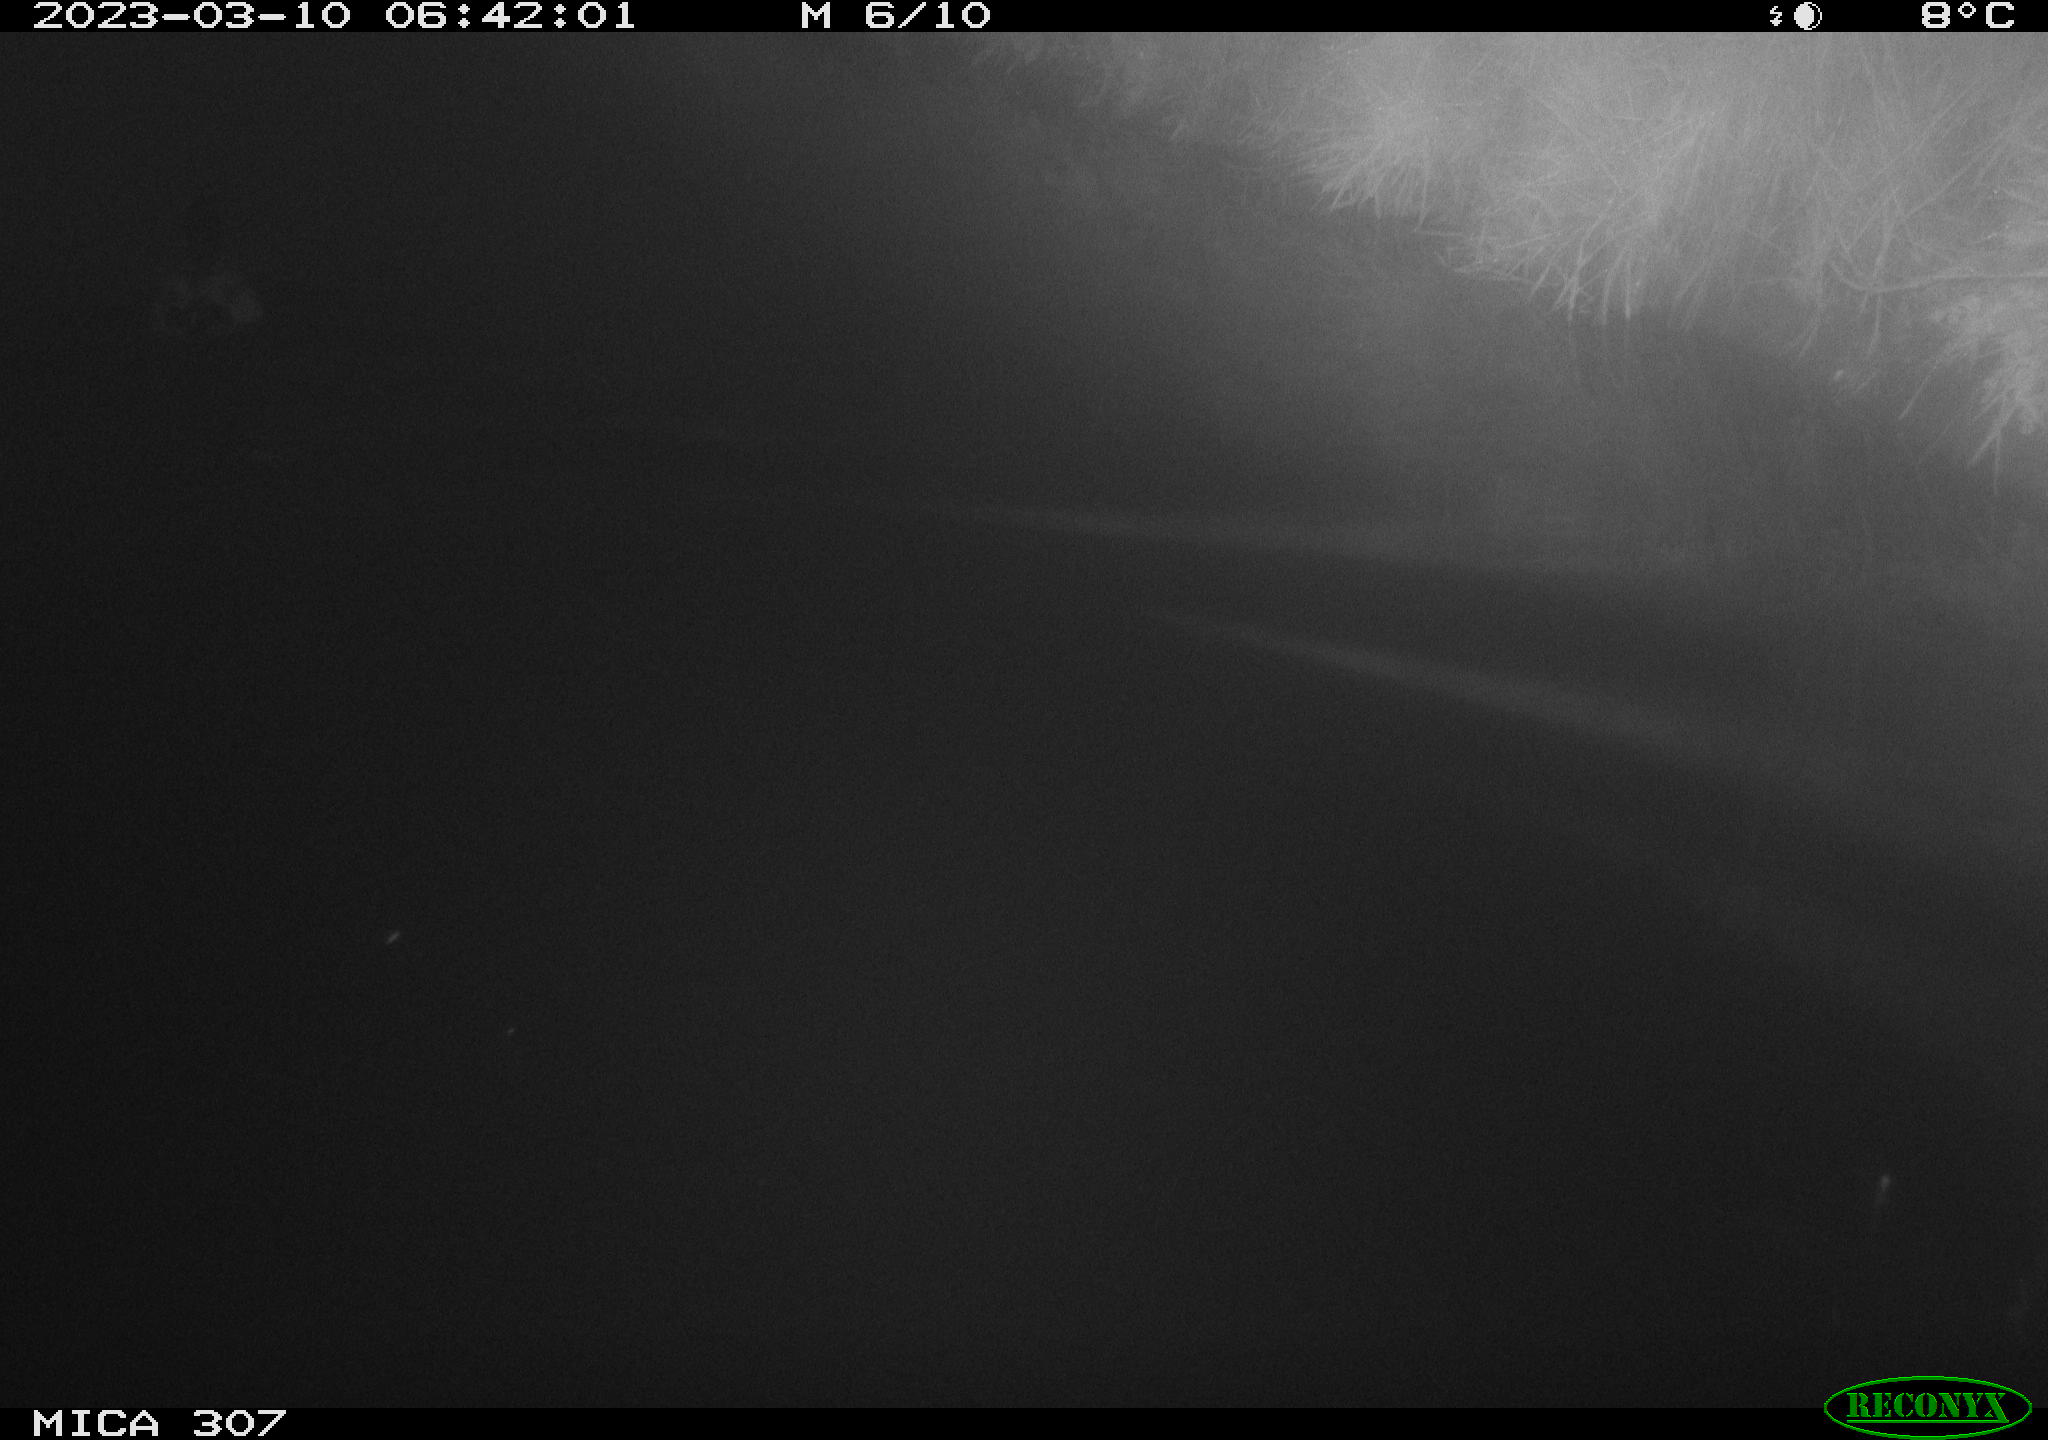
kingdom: Animalia
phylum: Chordata
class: Aves
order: Anseriformes
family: Anatidae
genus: Anas
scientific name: Anas
